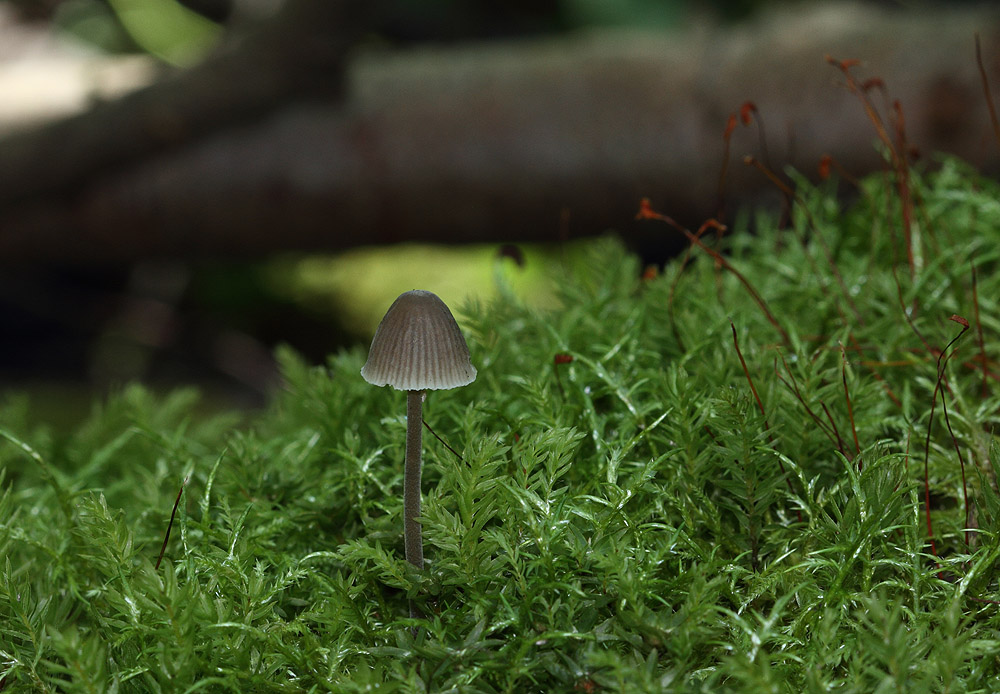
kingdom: Fungi
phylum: Basidiomycota
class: Agaricomycetes
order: Agaricales
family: Mycenaceae
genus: Mycena
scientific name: Mycena leptocephala
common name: klor-huesvamp
